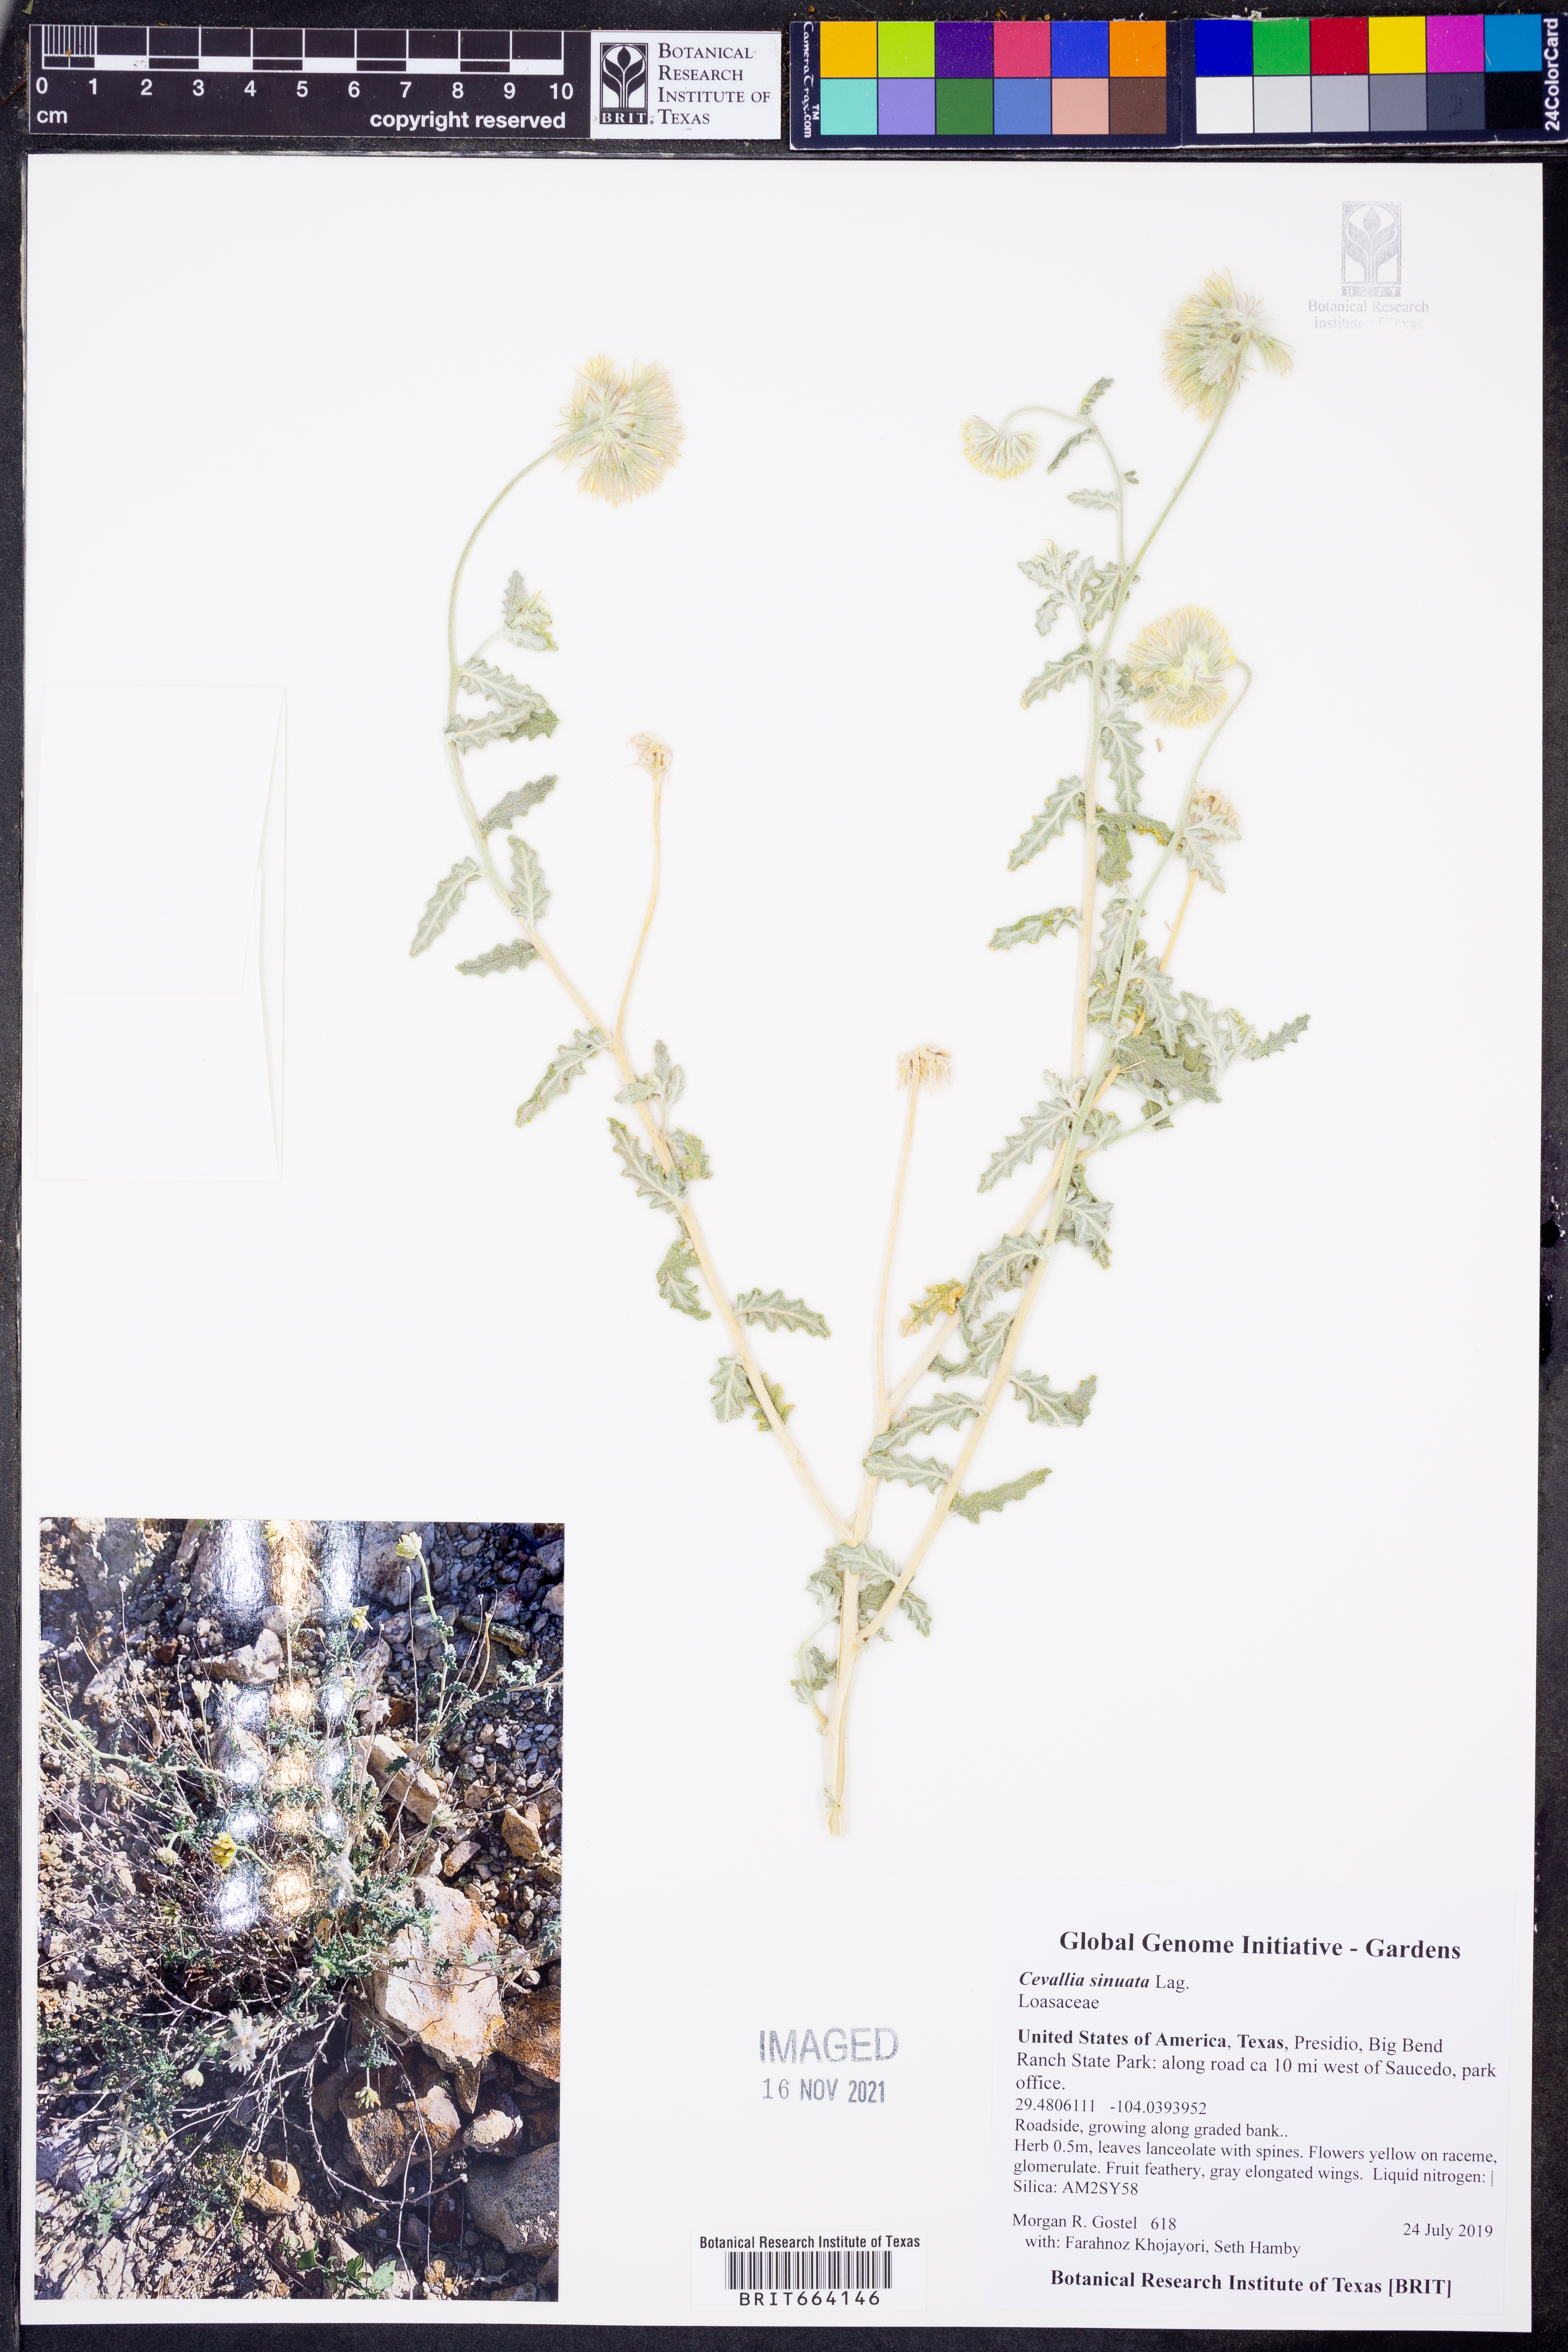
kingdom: Plantae
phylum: Tracheophyta
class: Magnoliopsida
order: Cornales
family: Loasaceae
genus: Cevallia
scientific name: Cevallia sinuata
